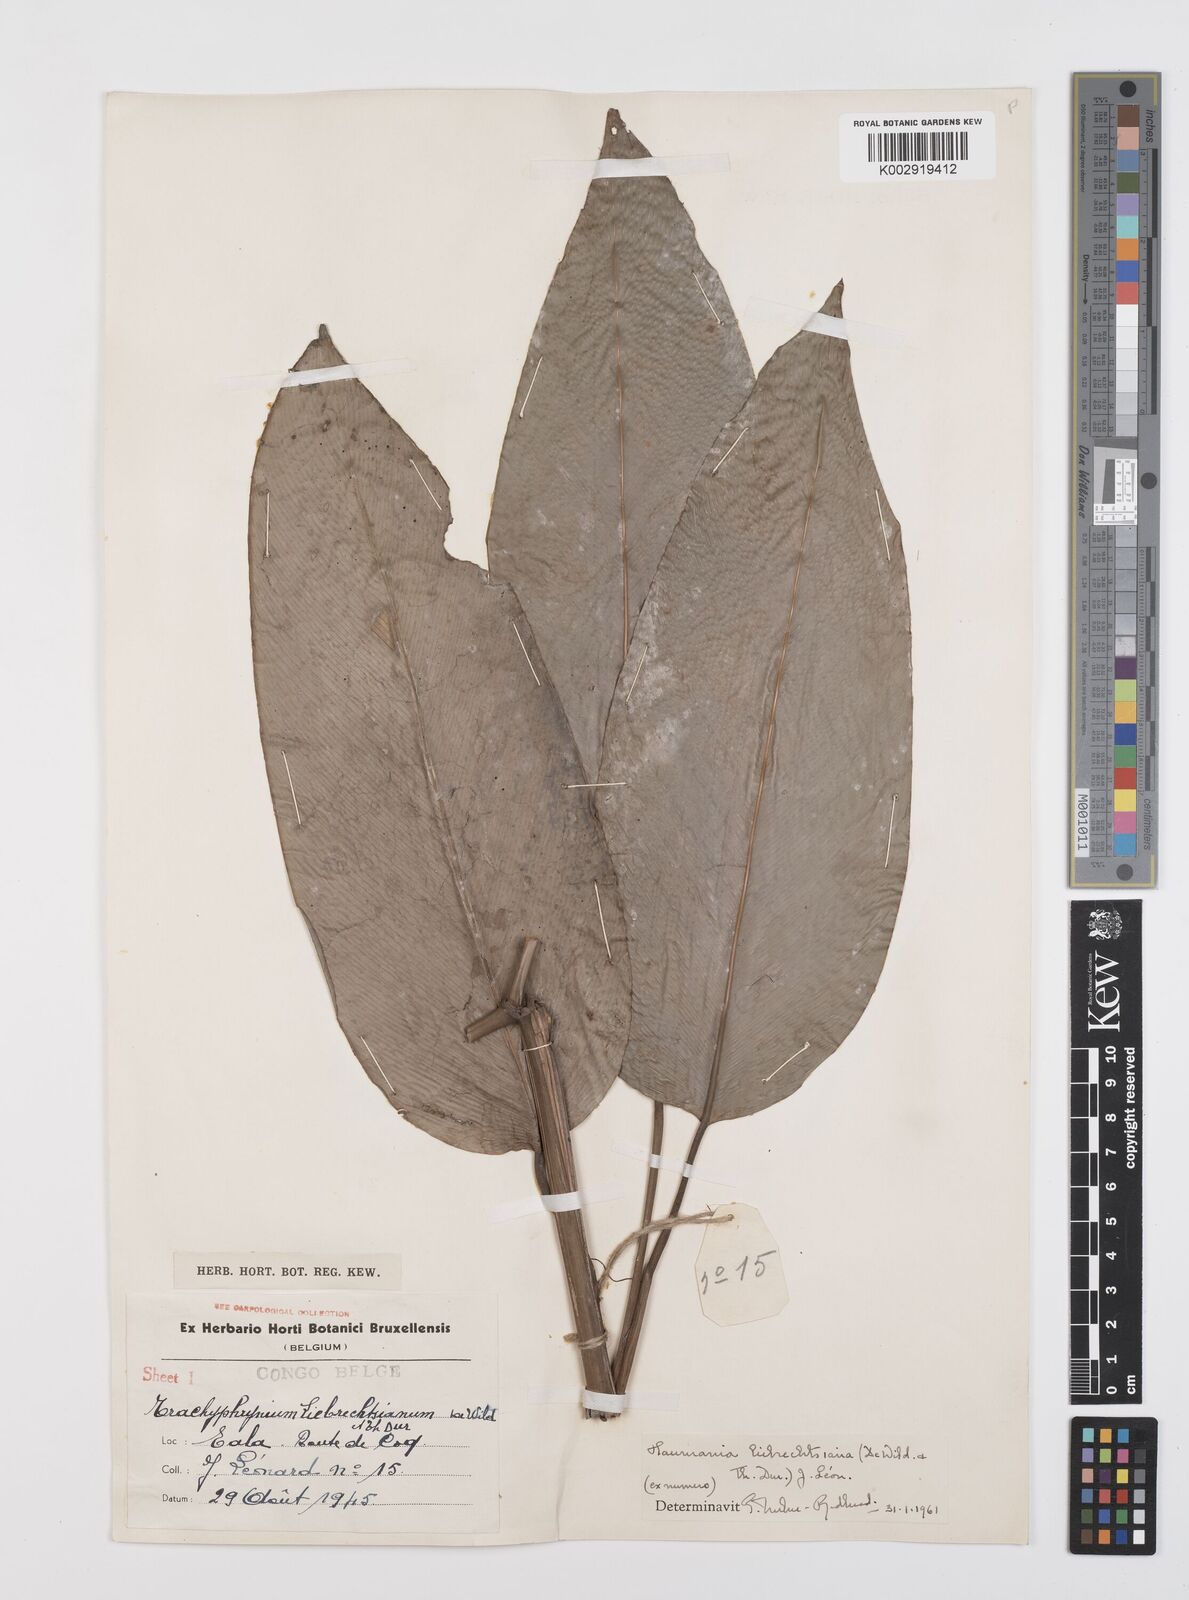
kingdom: Plantae
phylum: Tracheophyta
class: Liliopsida
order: Zingiberales
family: Marantaceae
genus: Haumania
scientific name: Haumania liebrechtsiana
